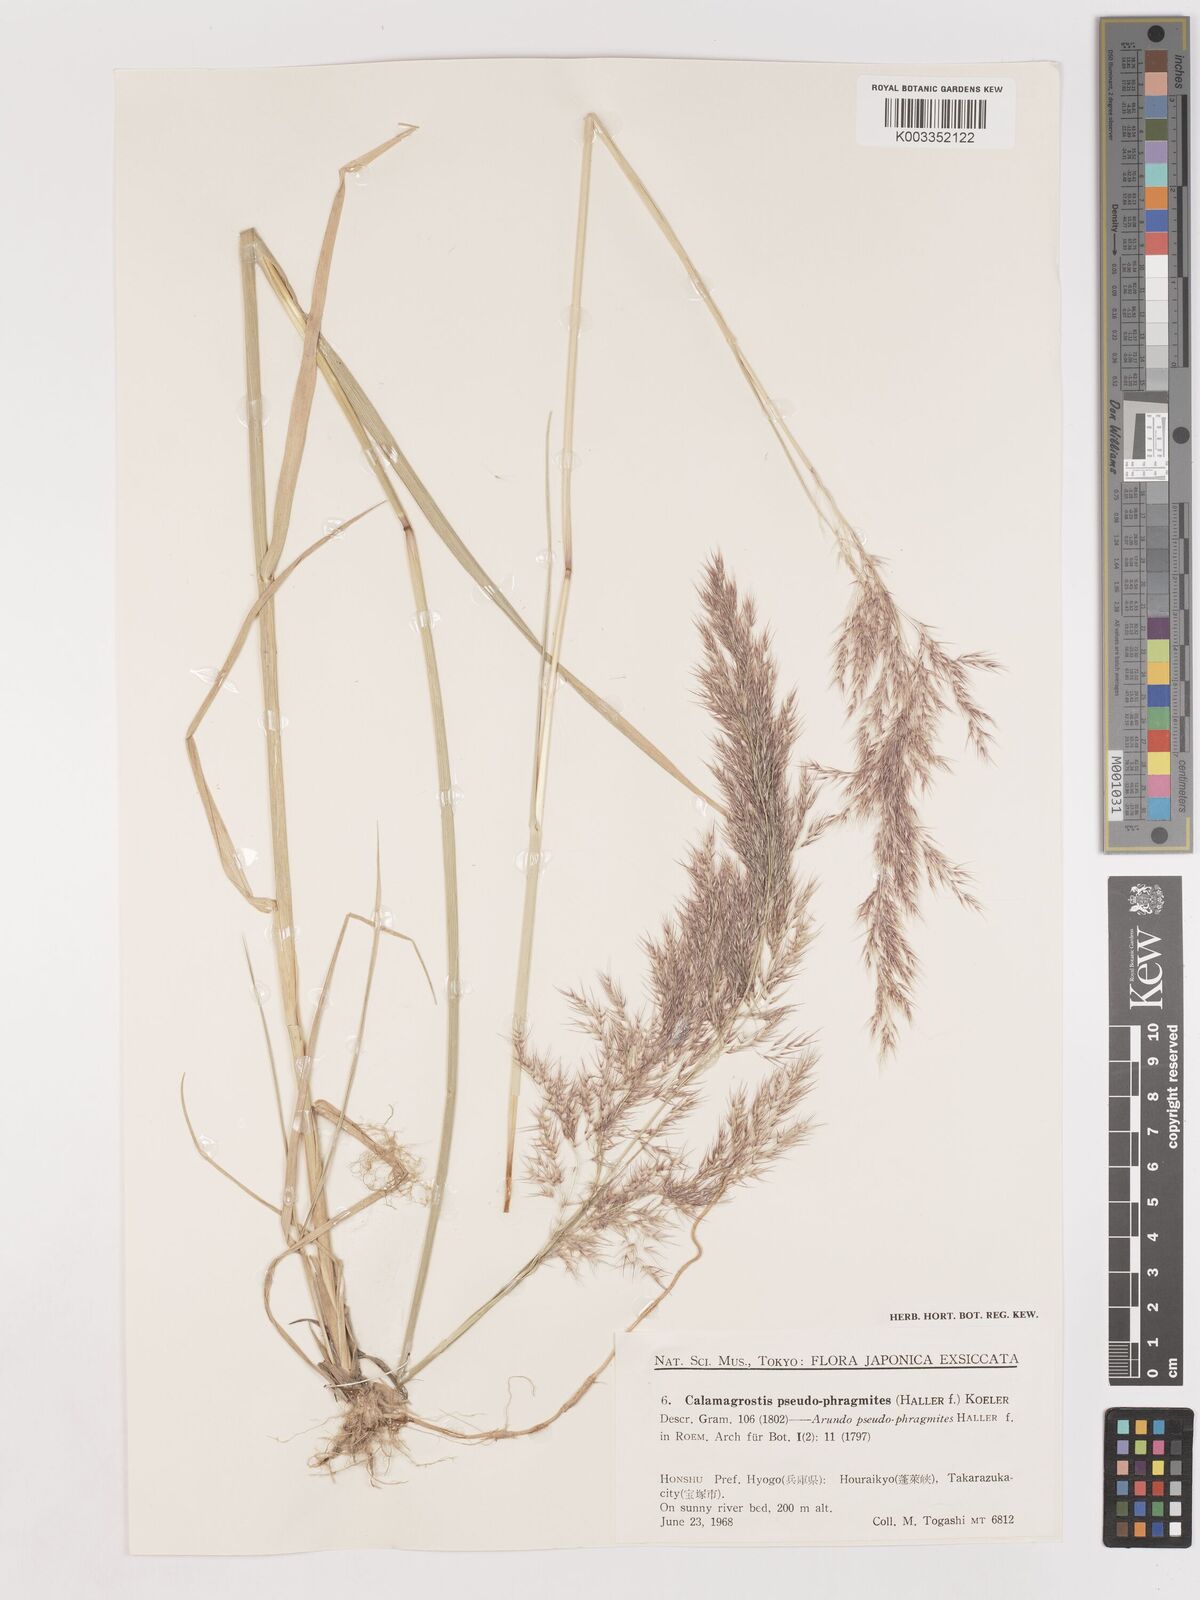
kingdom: Plantae
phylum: Tracheophyta
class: Liliopsida
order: Poales
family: Poaceae
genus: Calamagrostis
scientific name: Calamagrostis pseudophragmites
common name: Coastal small-reed
